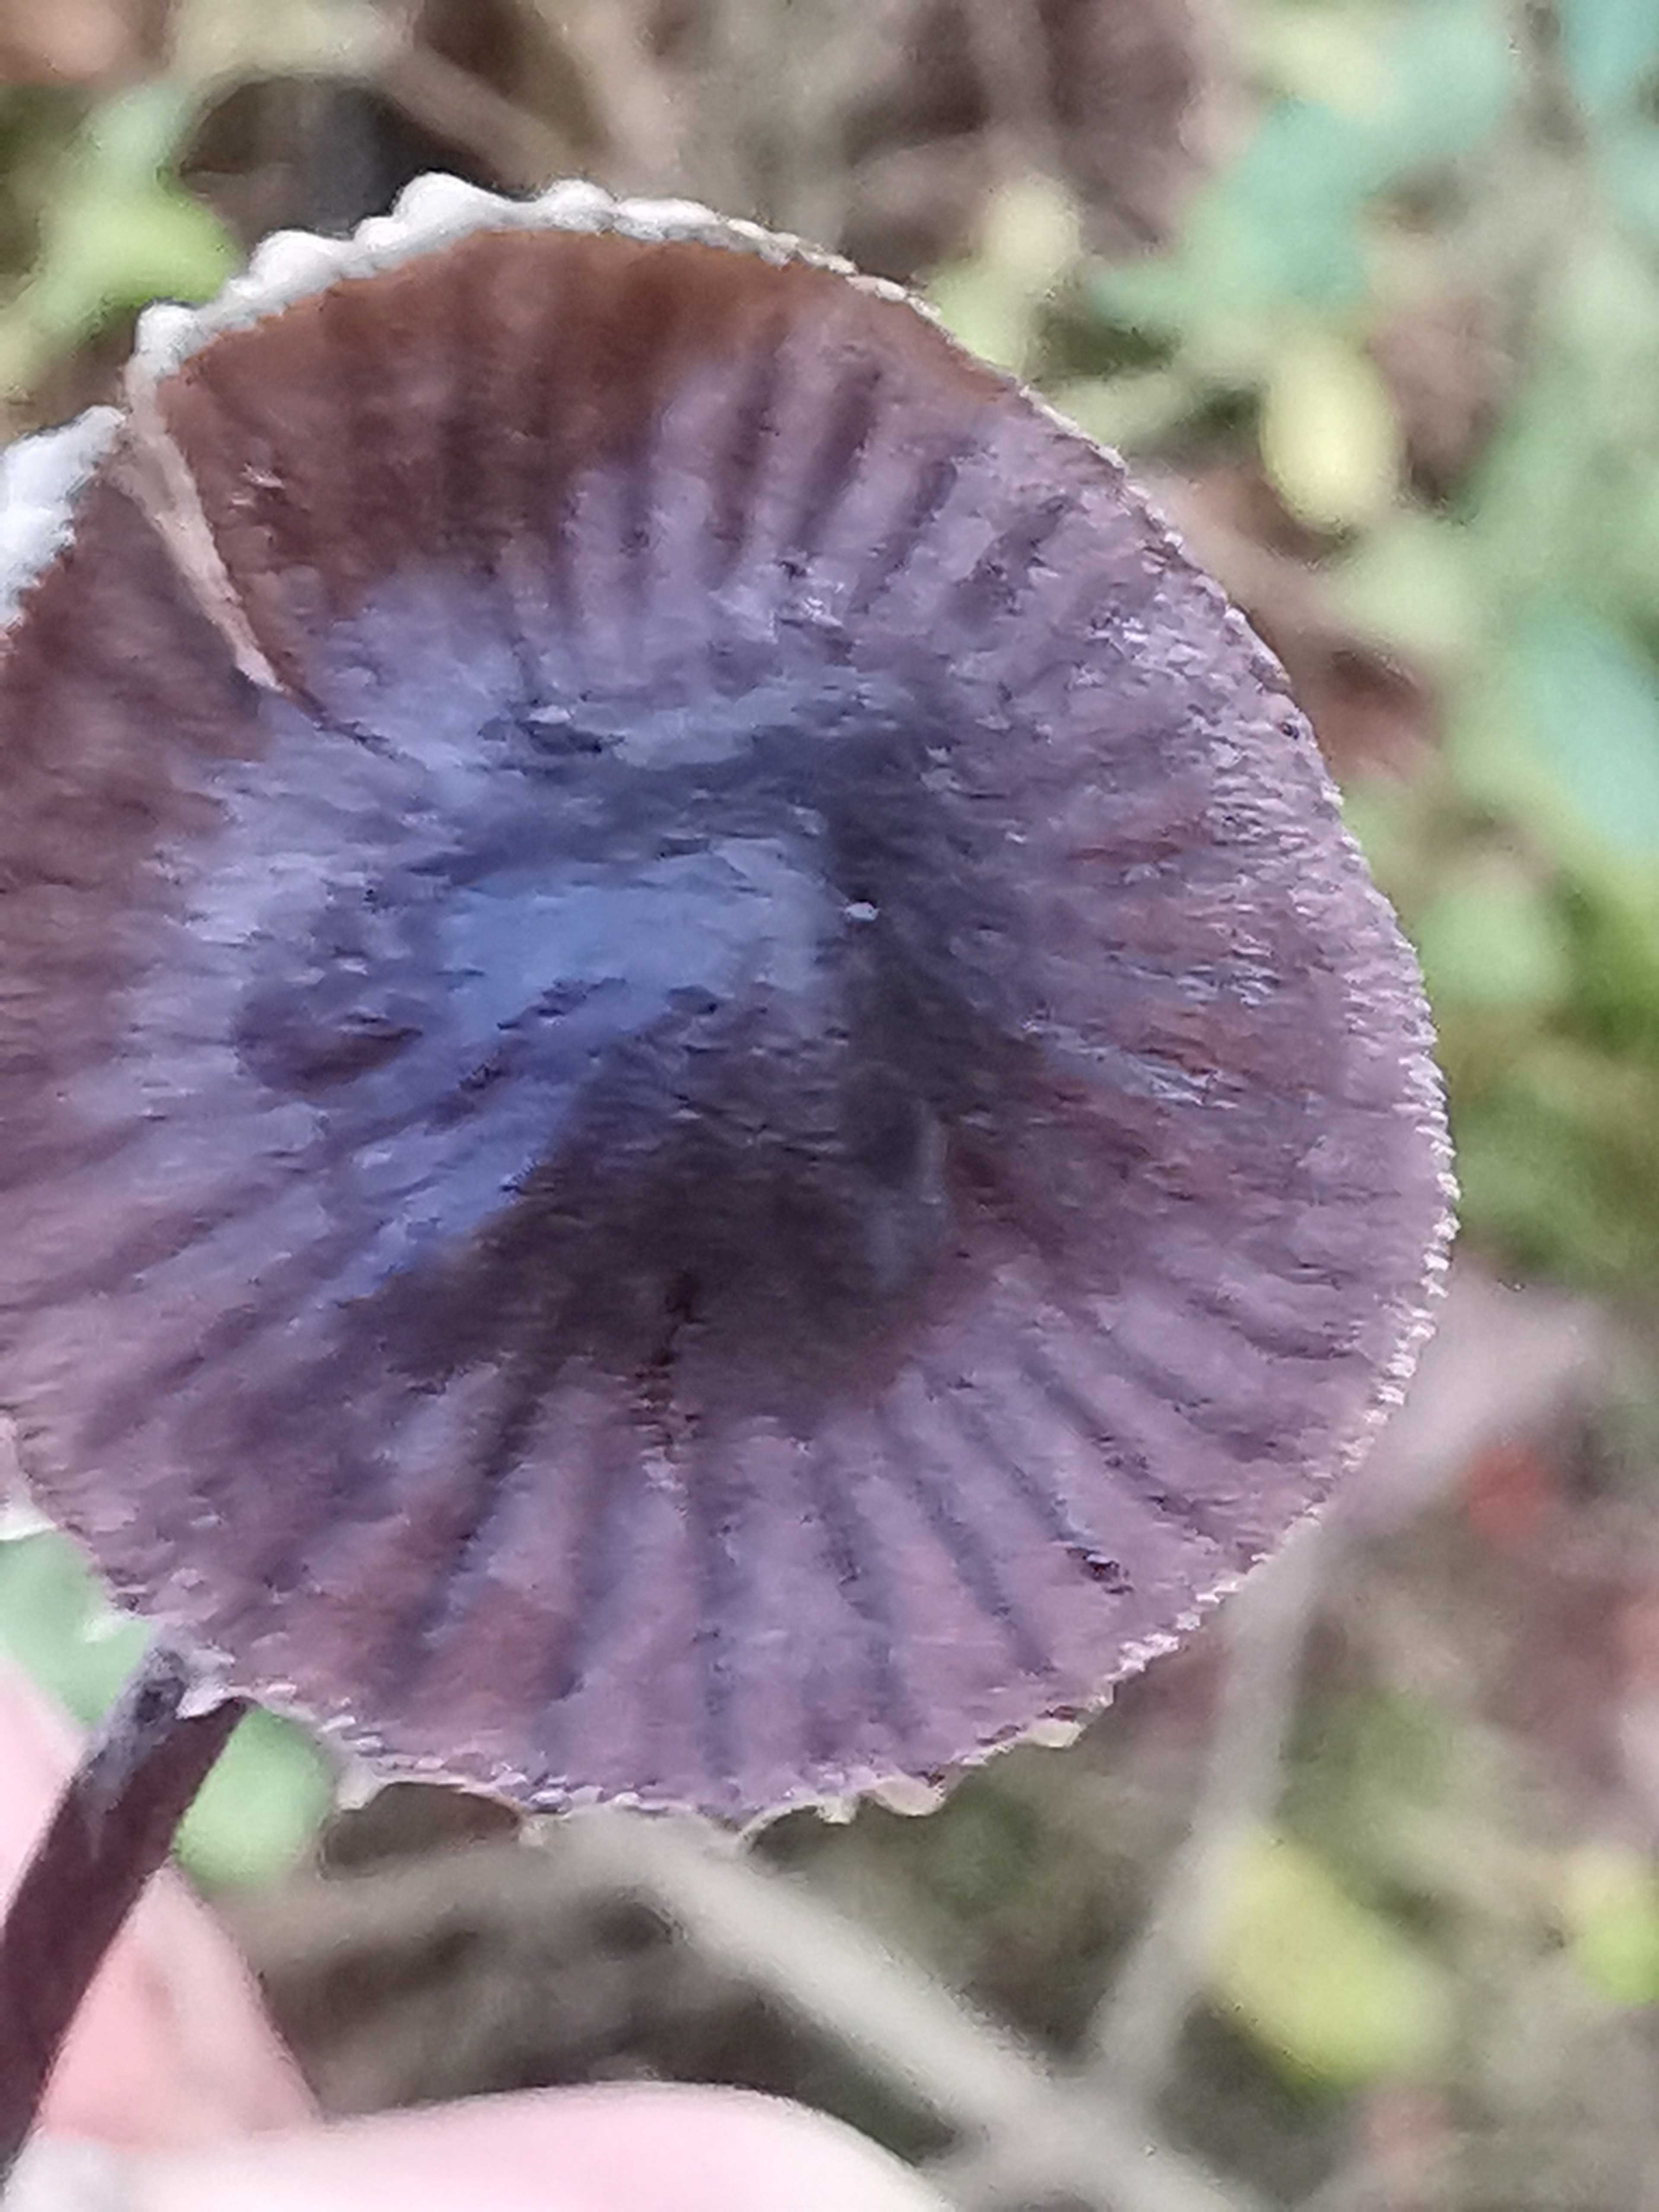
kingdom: Fungi
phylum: Basidiomycota
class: Agaricomycetes
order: Agaricales
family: Mycenaceae
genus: Mycena
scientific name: Mycena galopus
